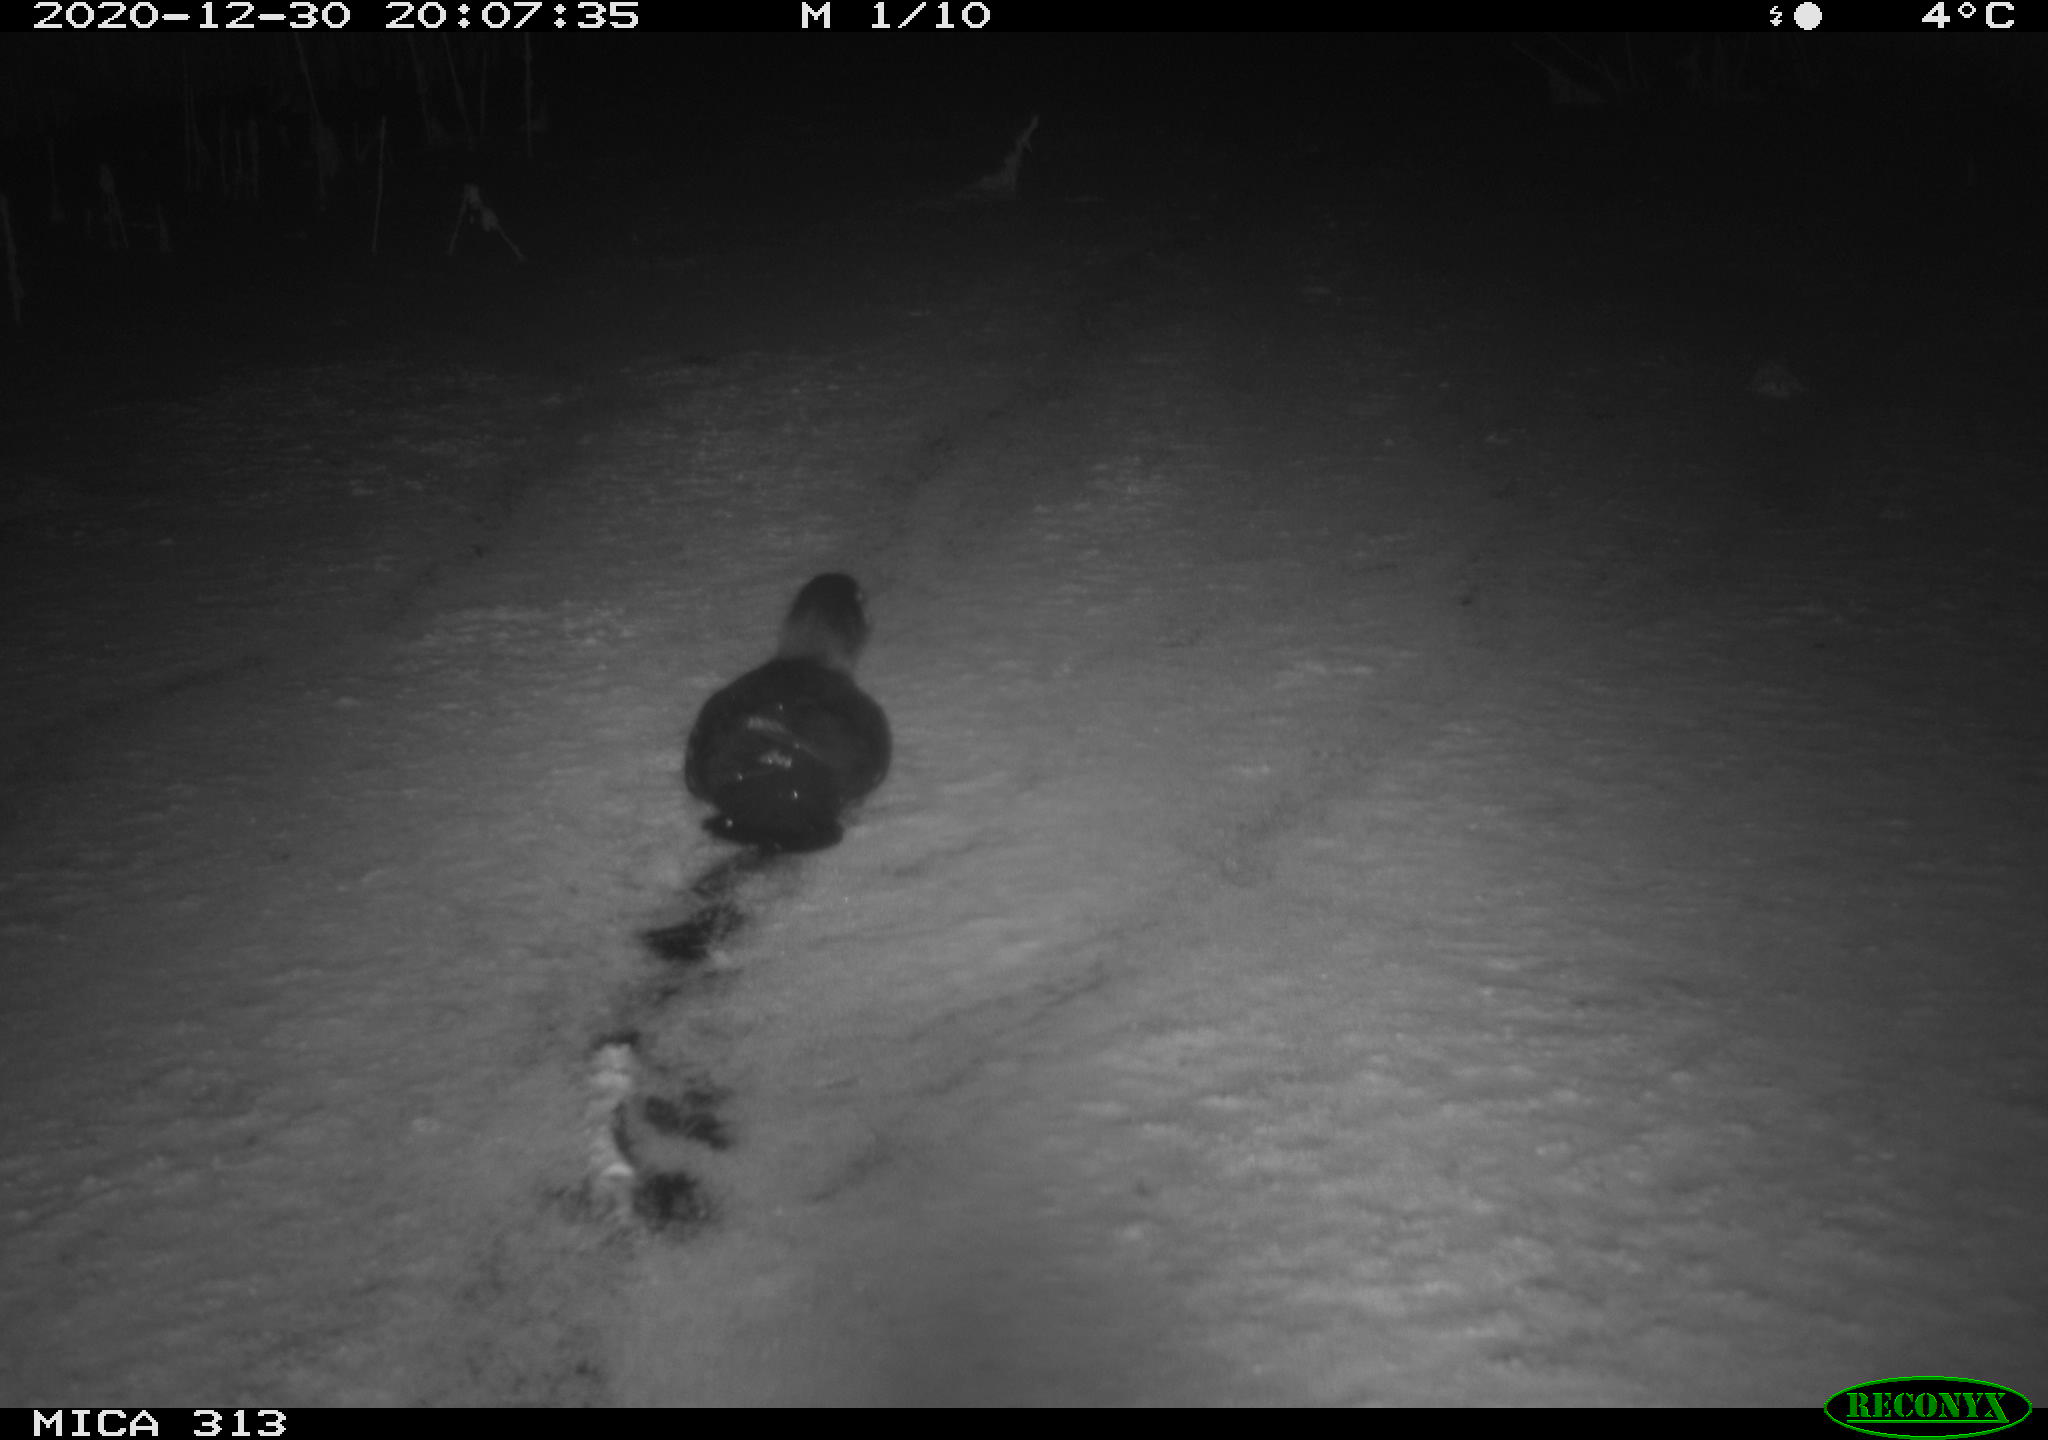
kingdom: Animalia
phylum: Chordata
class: Aves
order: Gruiformes
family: Rallidae
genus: Fulica
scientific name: Fulica atra
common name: Eurasian coot
